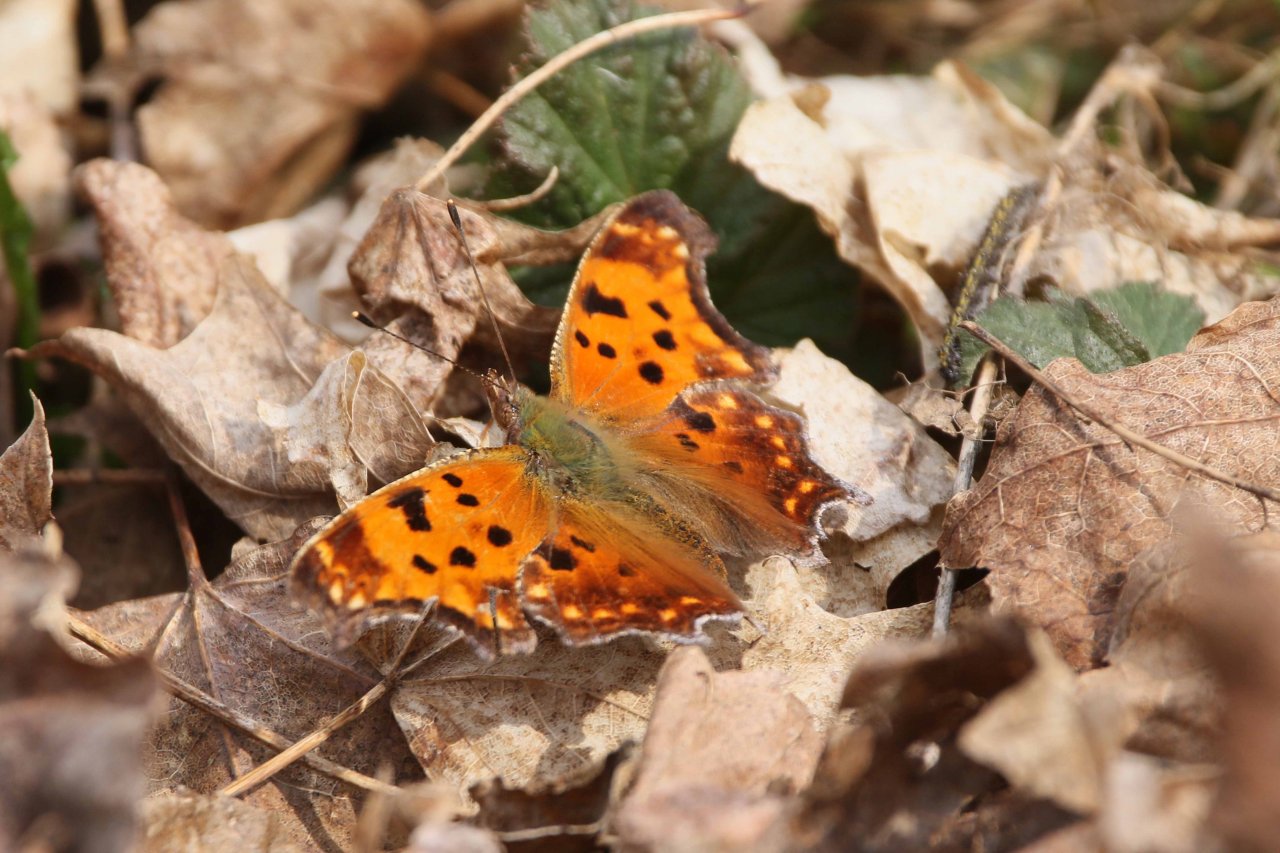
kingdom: Animalia
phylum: Arthropoda
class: Insecta
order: Lepidoptera
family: Nymphalidae
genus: Polygonia
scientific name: Polygonia comma
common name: Eastern Comma
